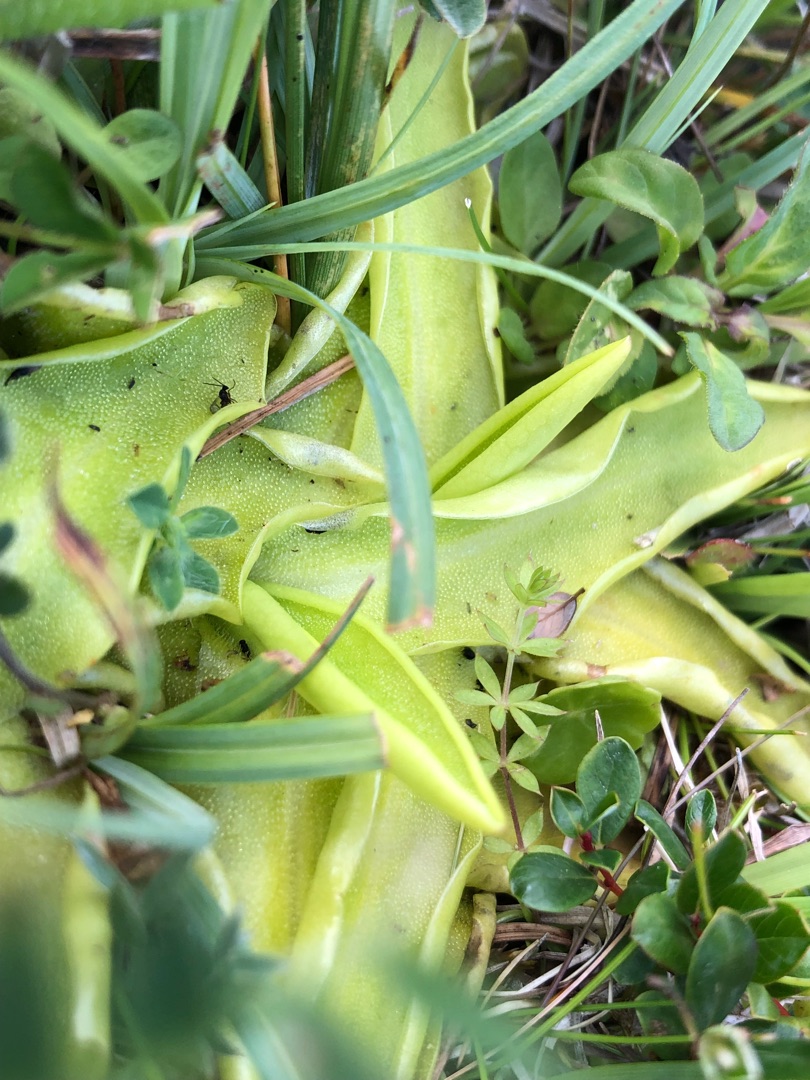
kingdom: Plantae
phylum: Tracheophyta
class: Magnoliopsida
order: Lamiales
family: Lentibulariaceae
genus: Pinguicula
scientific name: Pinguicula vulgaris
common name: Vibefedt
